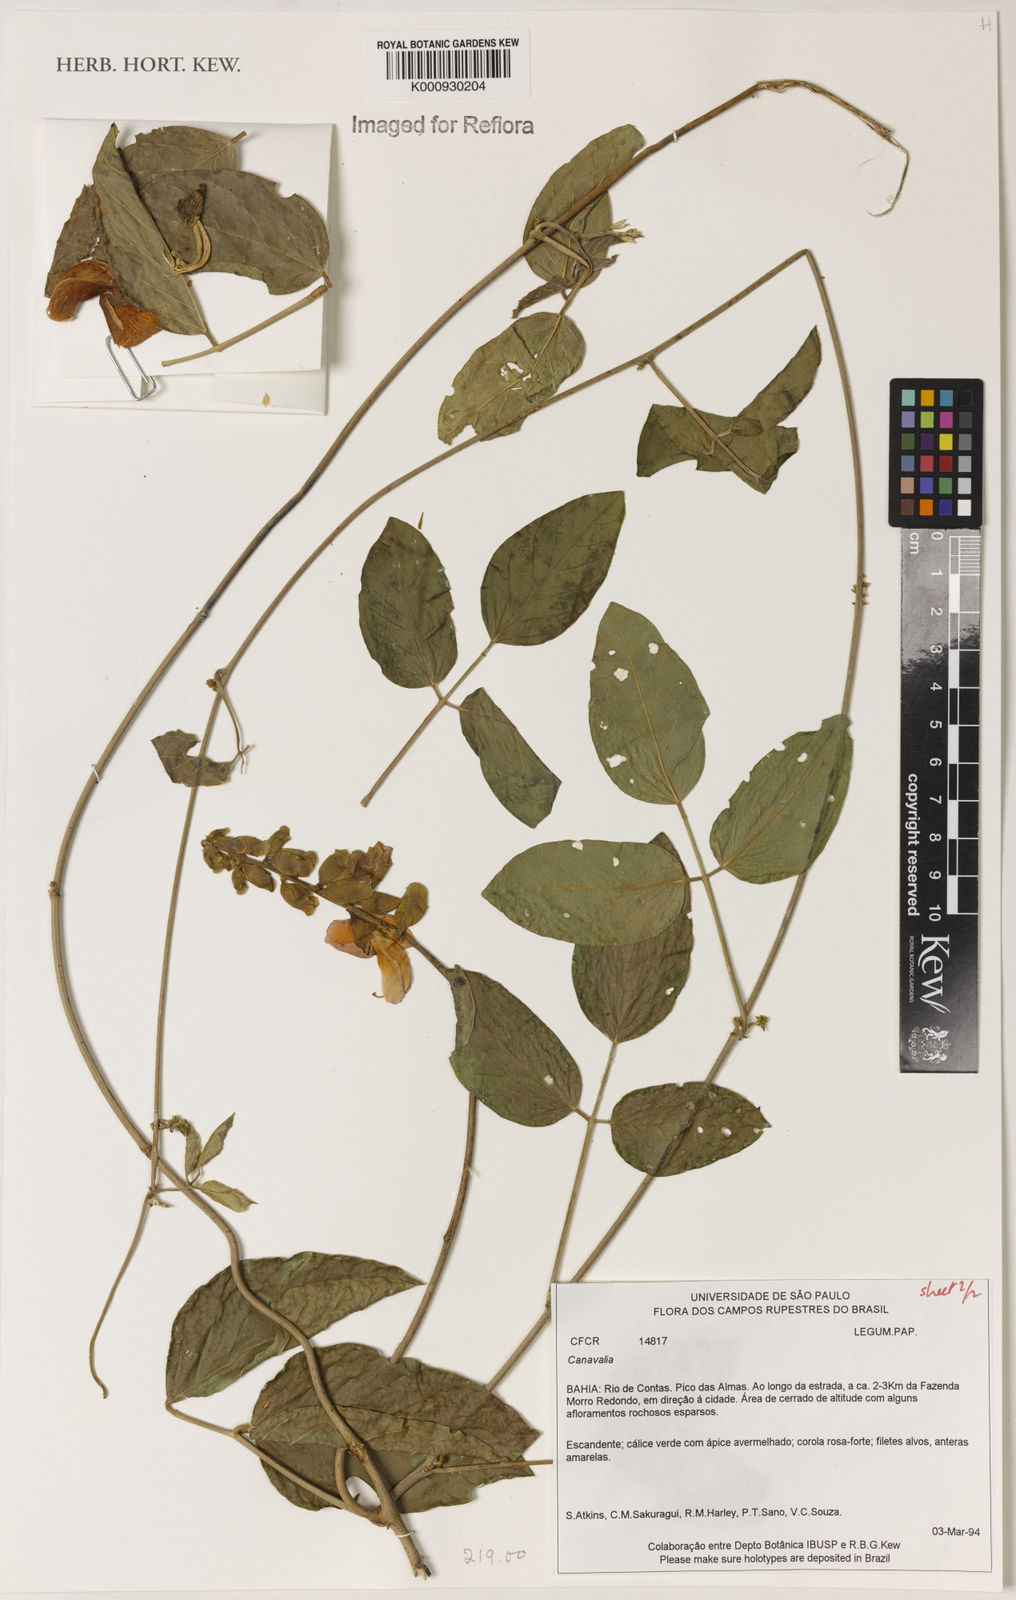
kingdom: Plantae
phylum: Tracheophyta
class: Magnoliopsida
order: Fabales
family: Fabaceae
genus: Canavalia
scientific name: Canavalia
